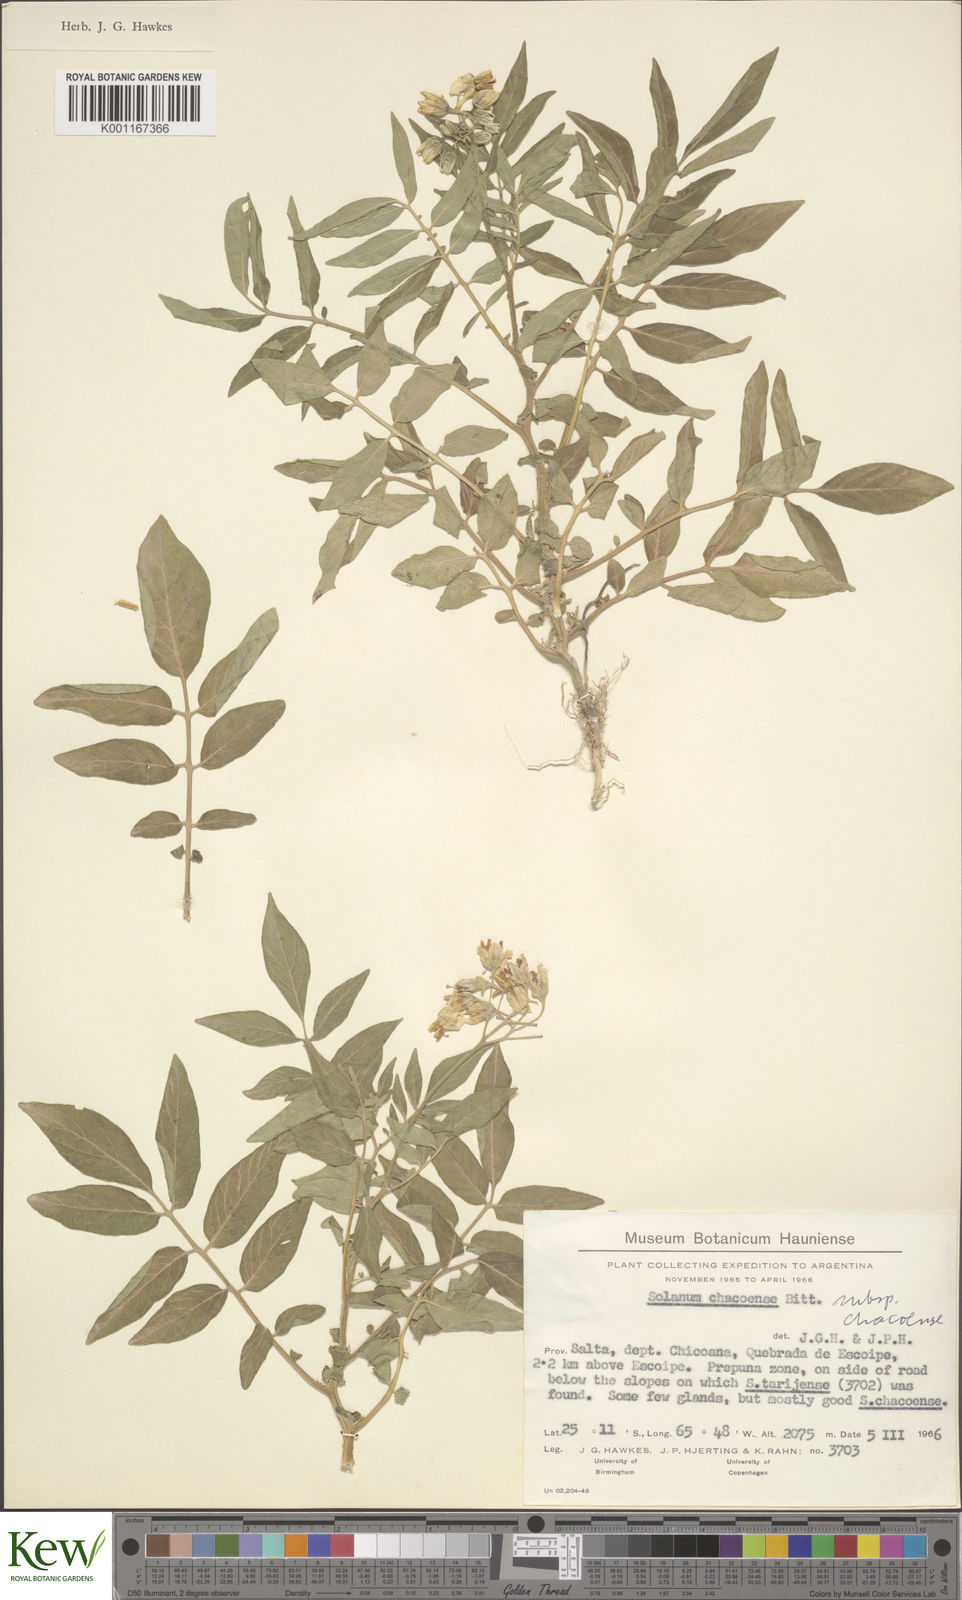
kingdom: Plantae
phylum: Tracheophyta
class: Magnoliopsida
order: Solanales
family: Solanaceae
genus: Solanum
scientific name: Solanum chacoense
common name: Chaco potato
